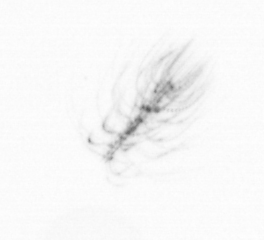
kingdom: Chromista
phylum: Ochrophyta
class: Bacillariophyceae
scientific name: Bacillariophyceae
